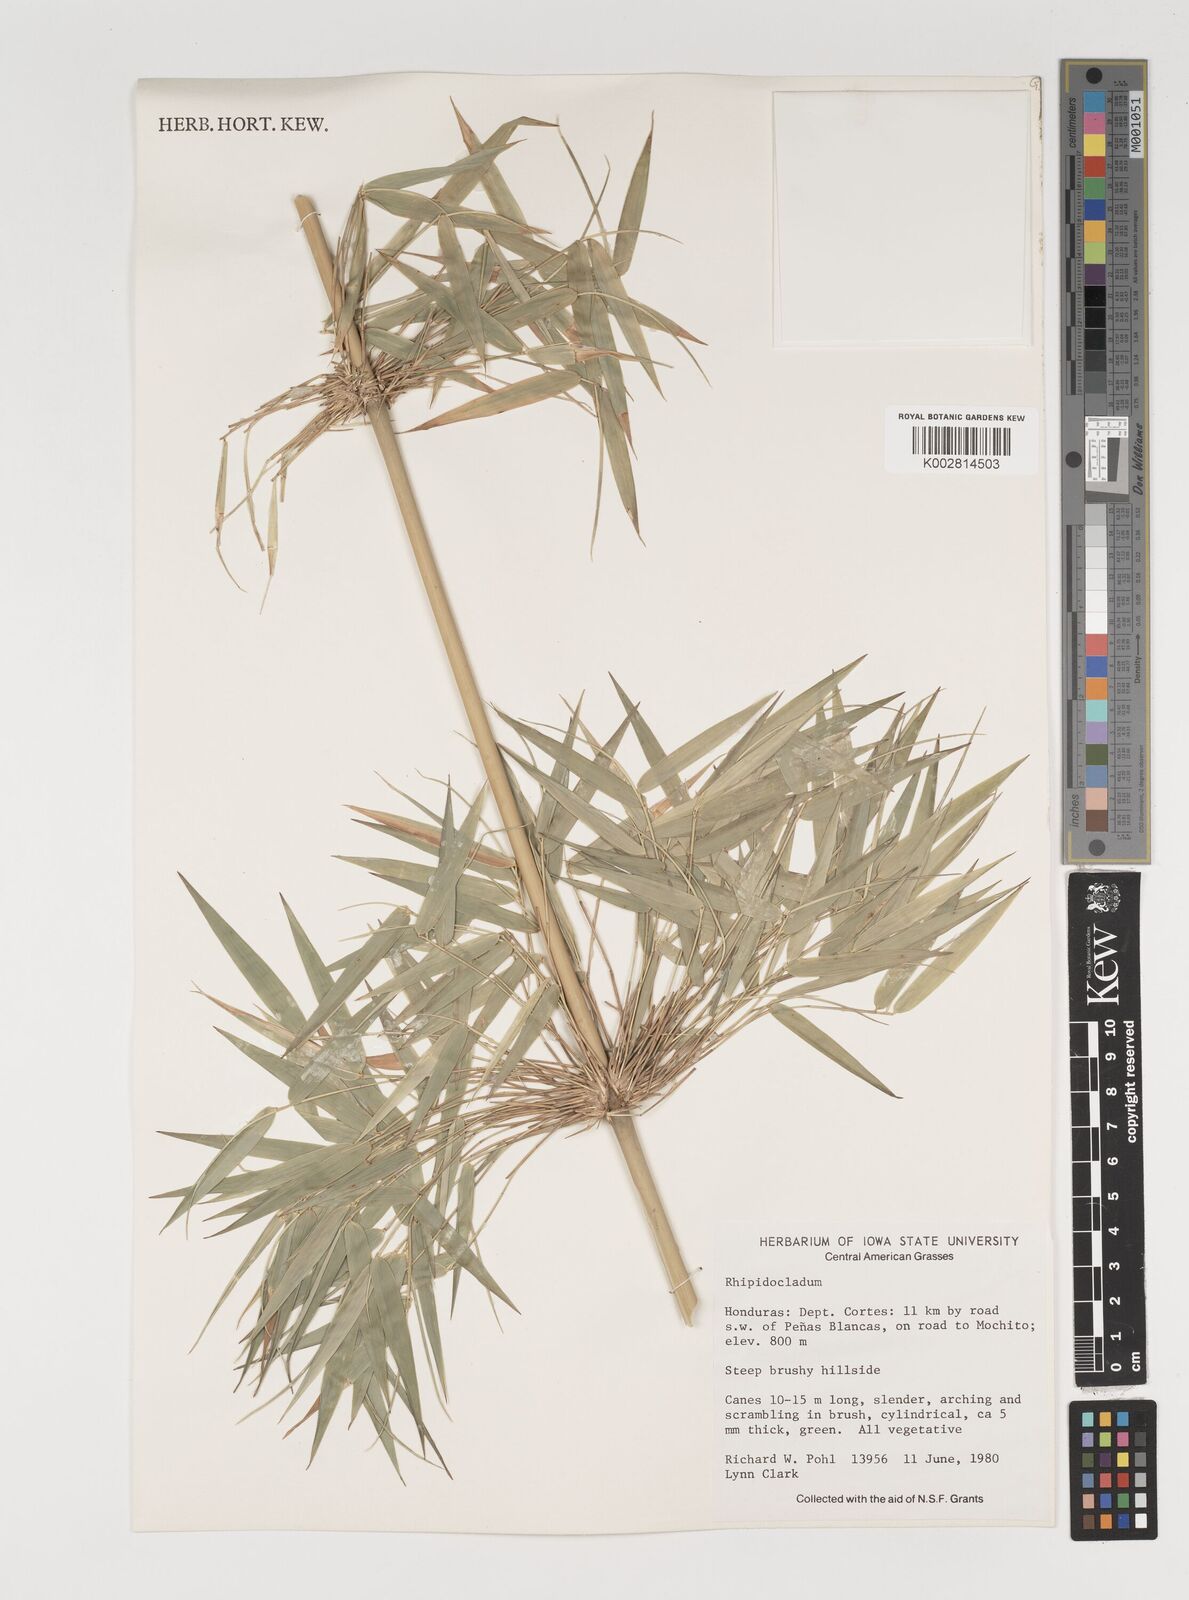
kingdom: Plantae
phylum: Tracheophyta
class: Liliopsida
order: Poales
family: Poaceae
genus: Rhipidocladum
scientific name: Rhipidocladum
